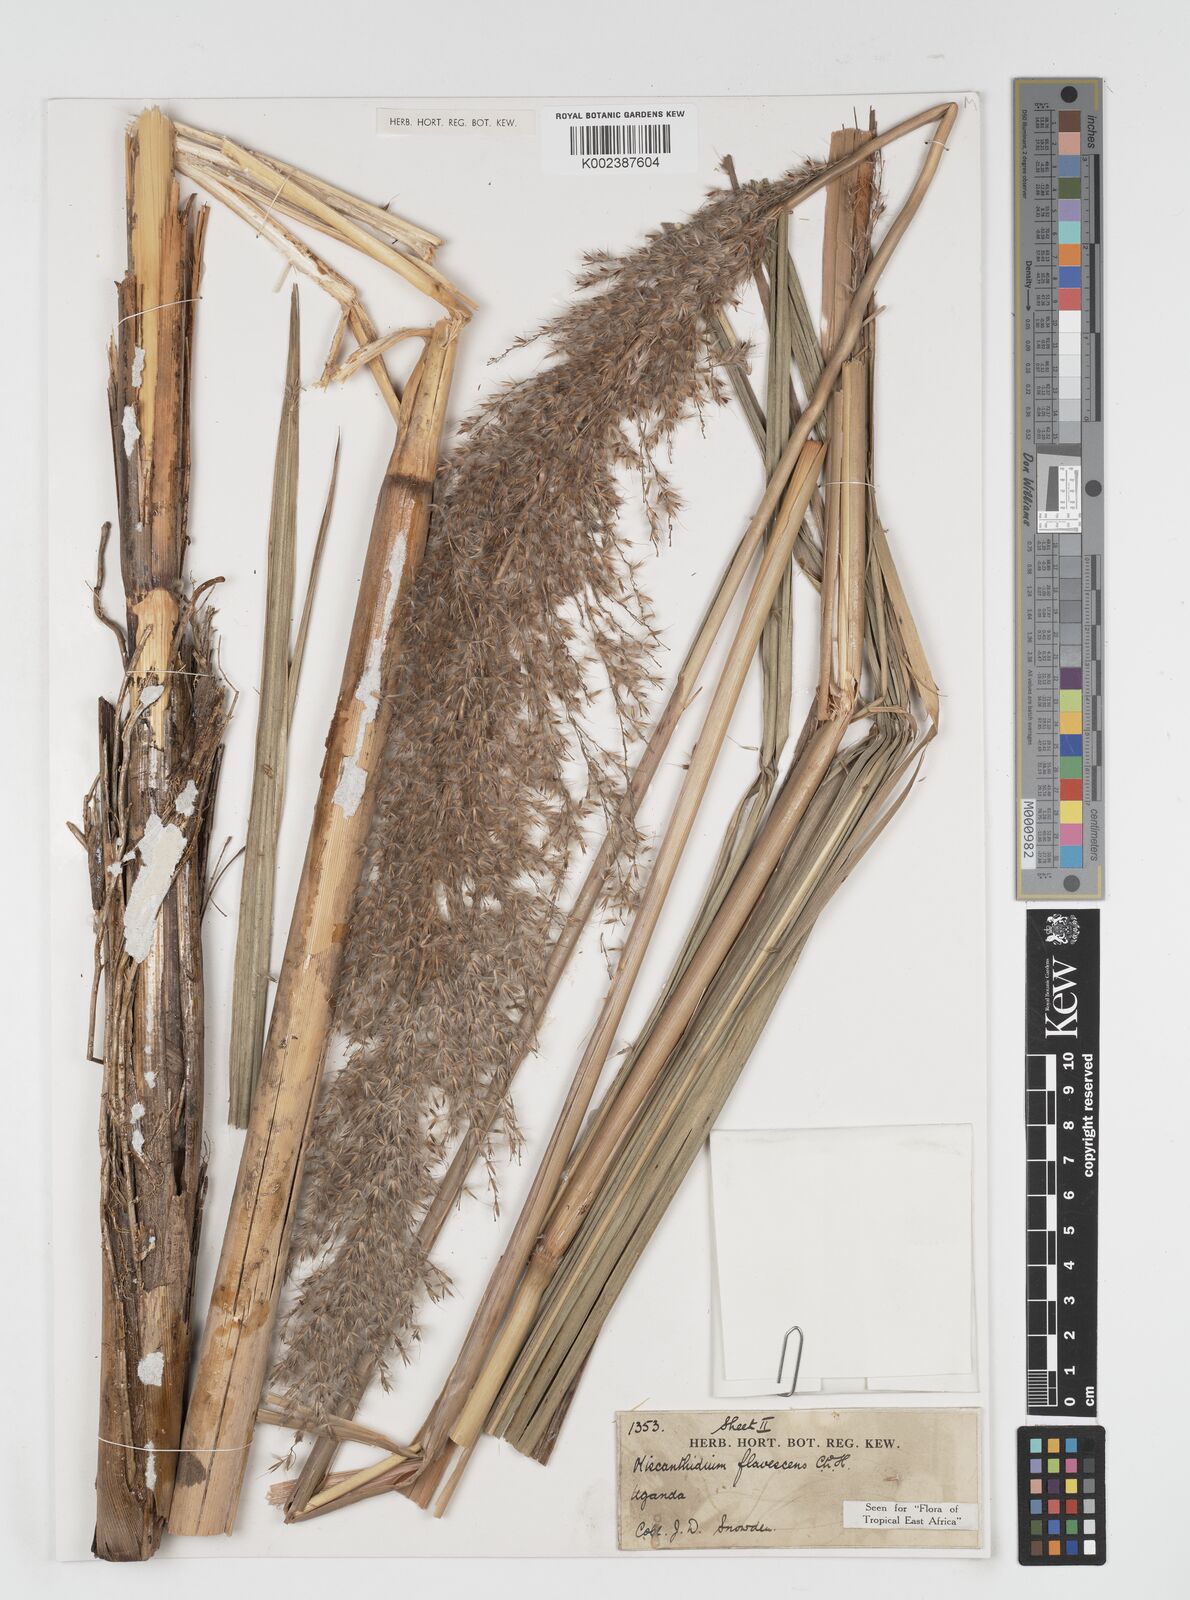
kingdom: Plantae
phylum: Tracheophyta
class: Liliopsida
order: Poales
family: Poaceae
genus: Miscanthidium
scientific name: Miscanthidium violaceum
